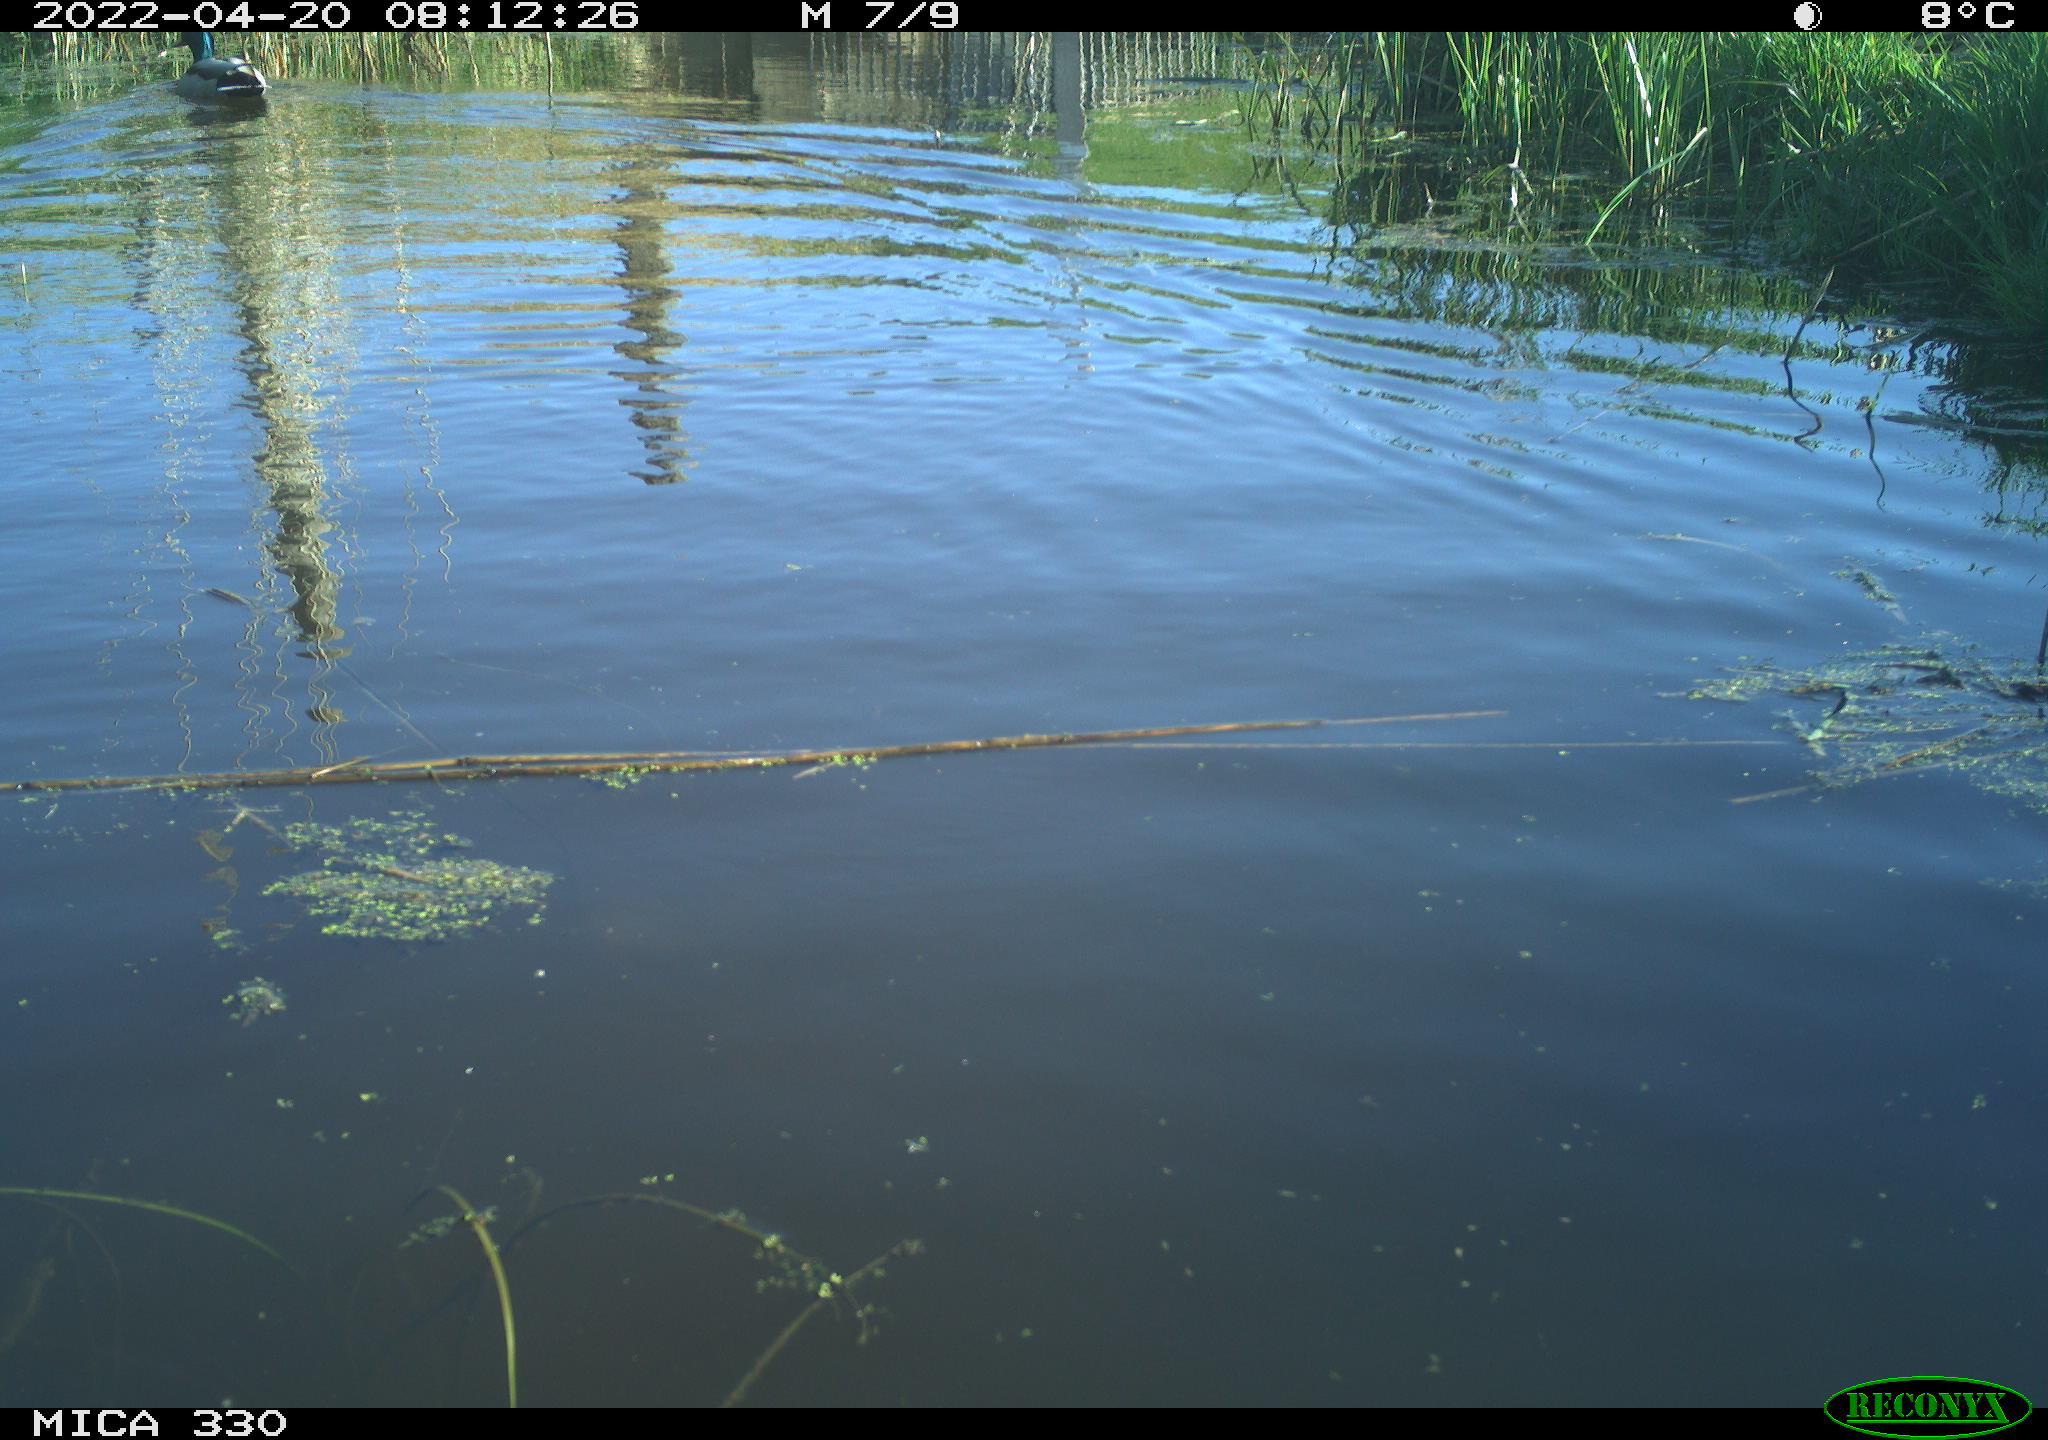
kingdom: Animalia
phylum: Chordata
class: Aves
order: Anseriformes
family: Anatidae
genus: Anas
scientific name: Anas platyrhynchos
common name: Mallard
